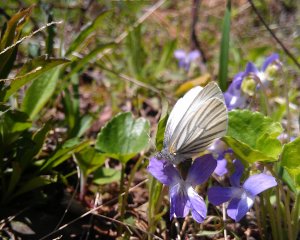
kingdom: Animalia
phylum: Arthropoda
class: Insecta
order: Lepidoptera
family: Pieridae
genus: Pieris
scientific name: Pieris oleracea
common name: Mustard White
